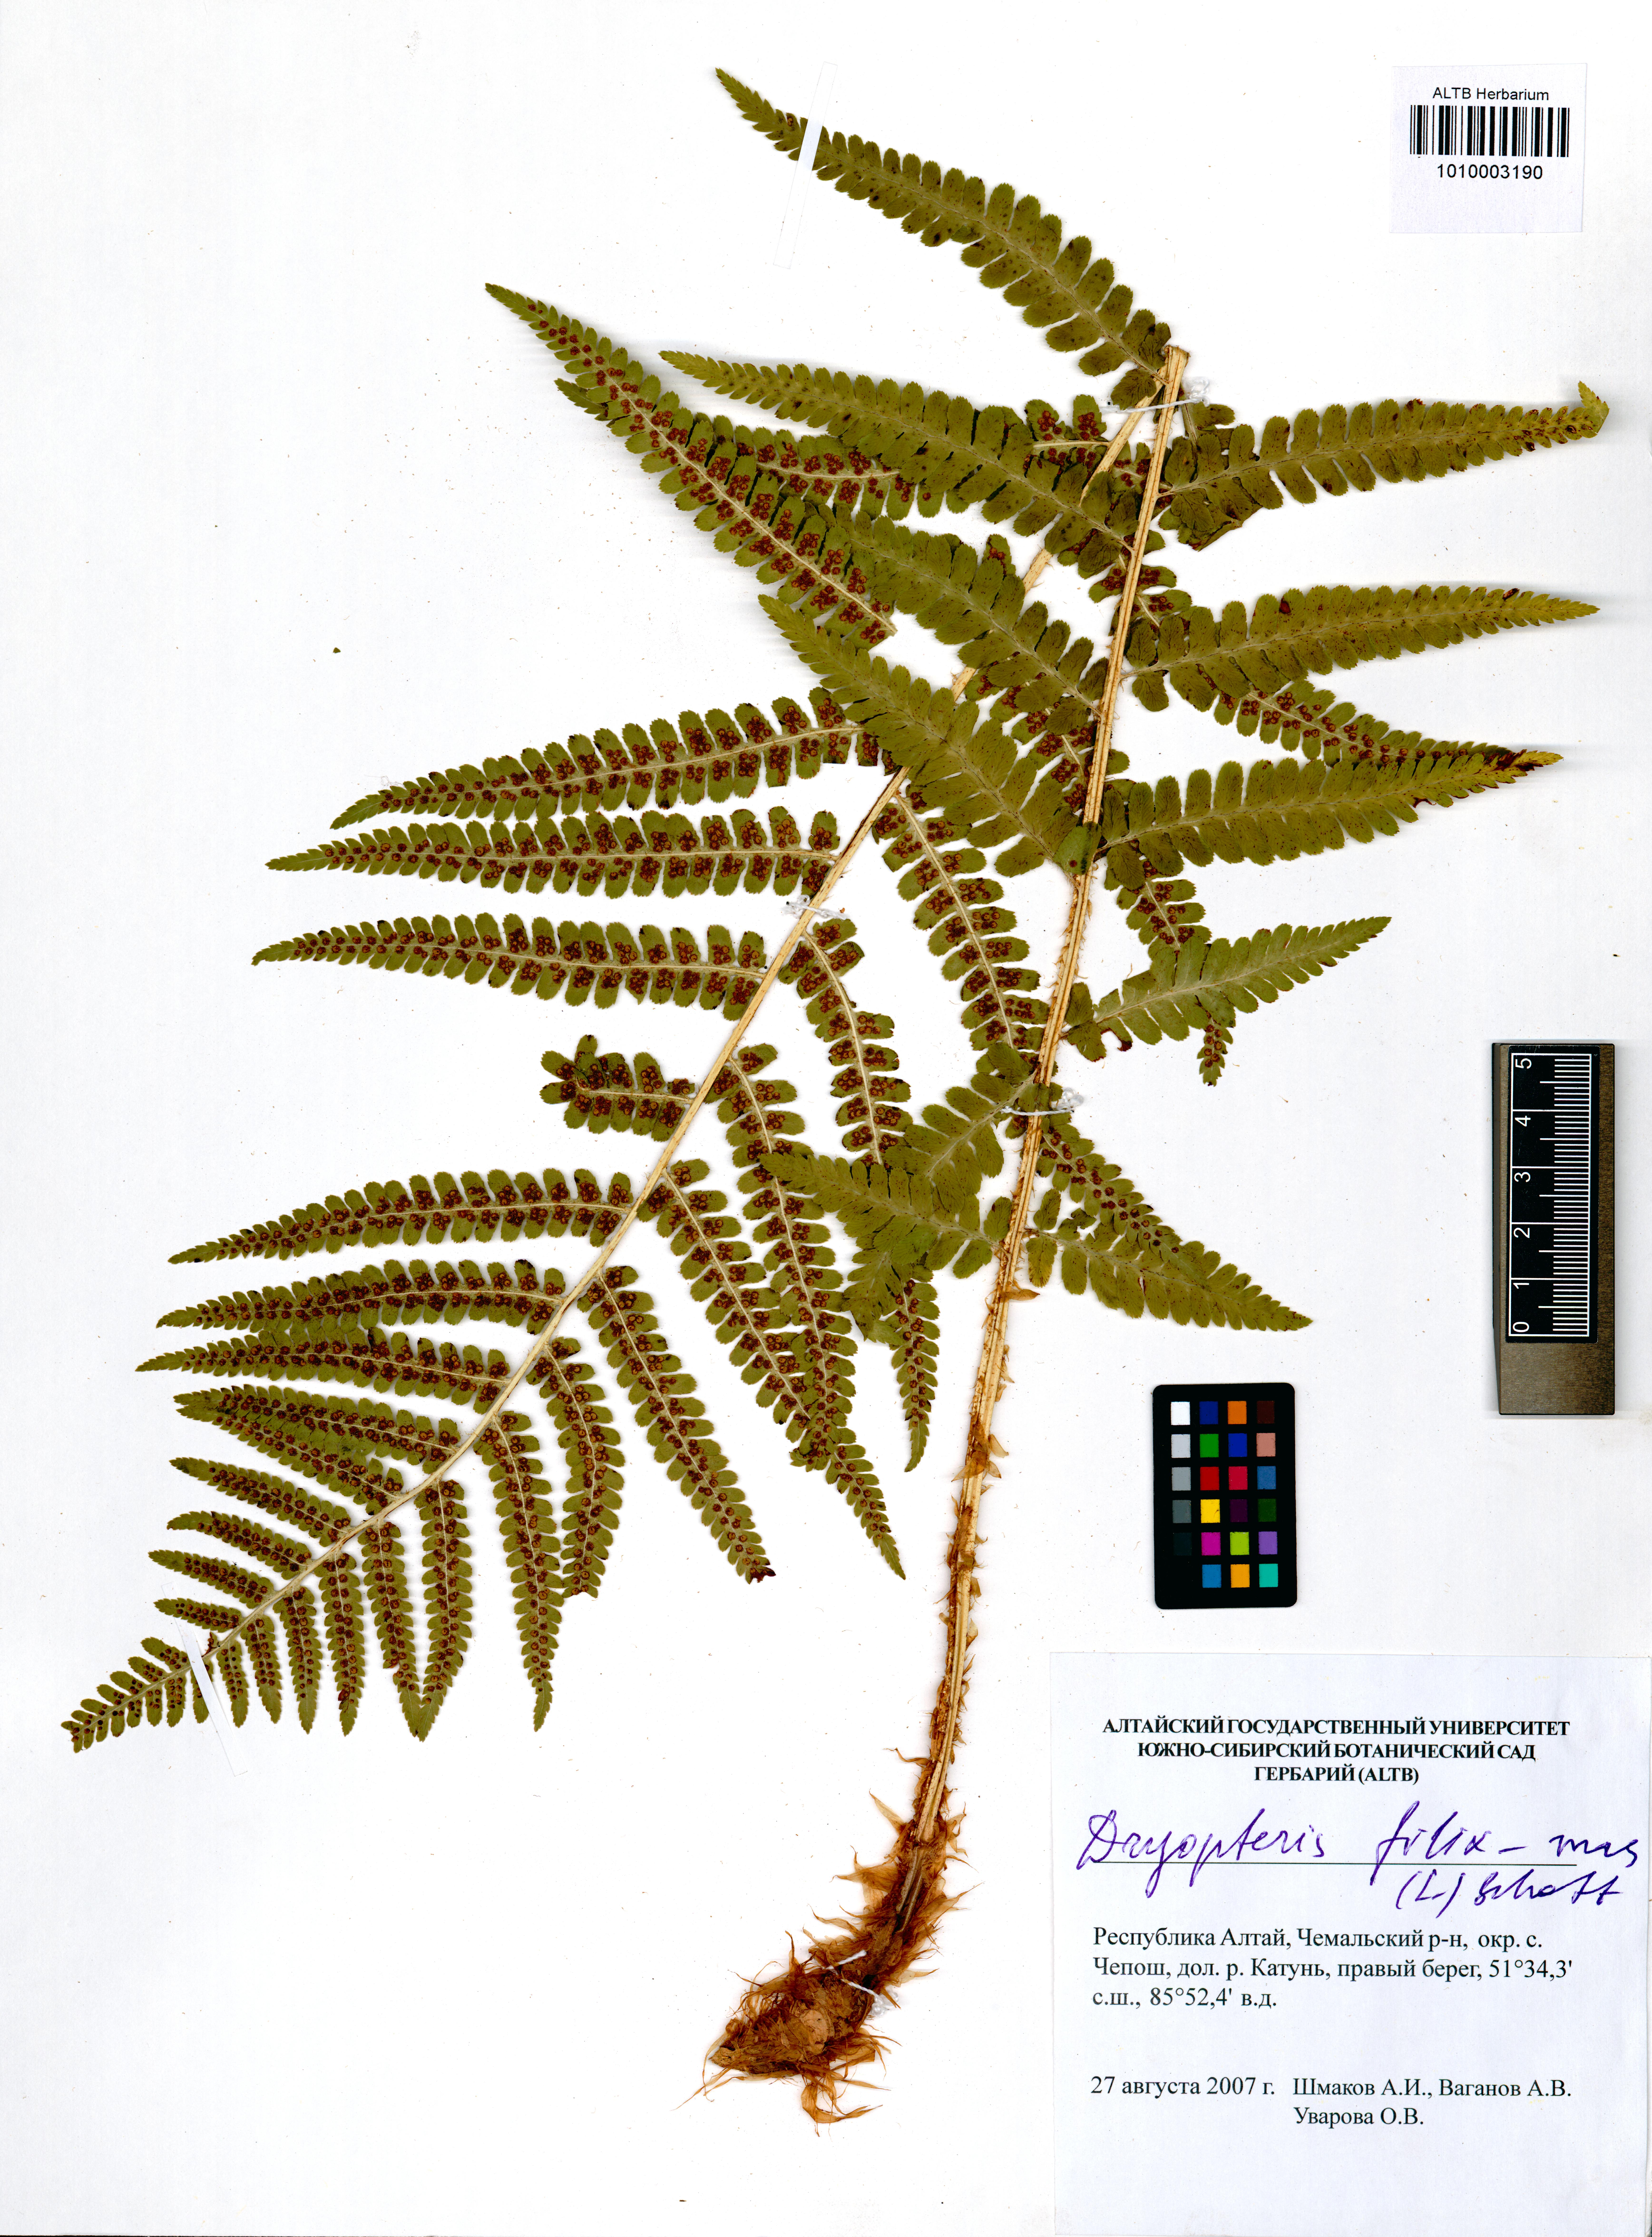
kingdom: Plantae
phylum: Tracheophyta
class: Polypodiopsida
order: Polypodiales
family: Dryopteridaceae
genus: Dryopteris
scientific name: Dryopteris filix-mas
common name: Male fern
